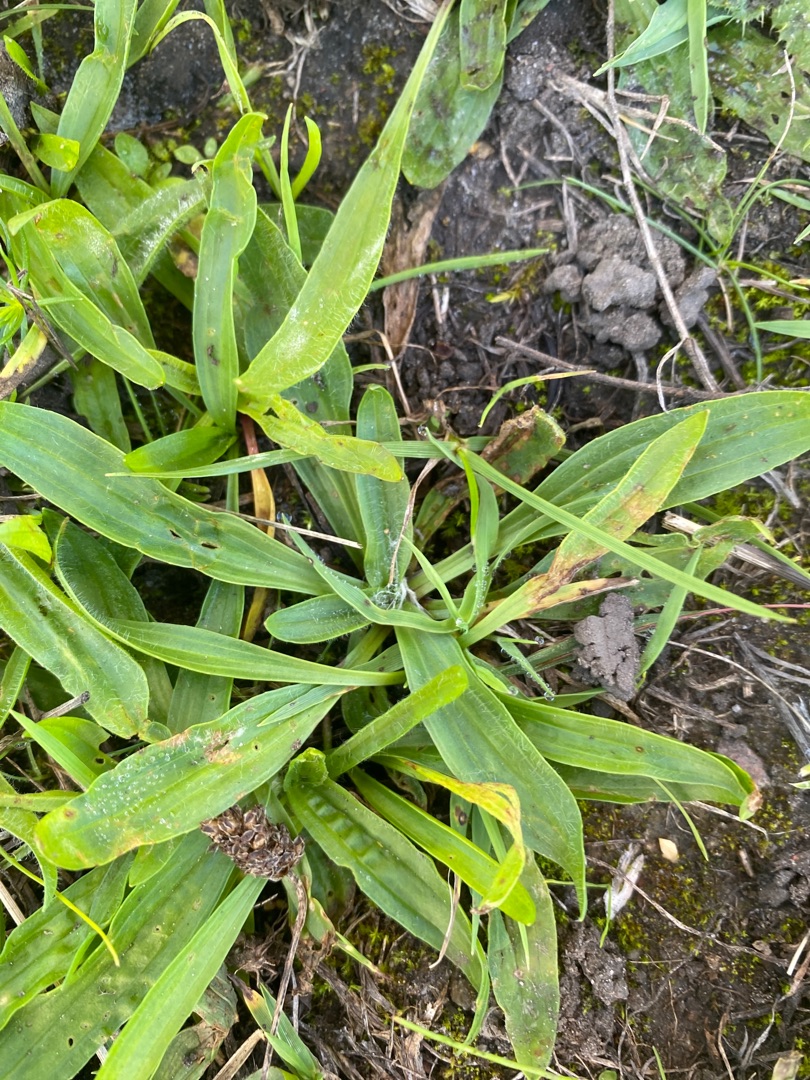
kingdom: Plantae
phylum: Tracheophyta
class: Magnoliopsida
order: Lamiales
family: Plantaginaceae
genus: Plantago
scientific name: Plantago lanceolata
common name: Lancet-vejbred
